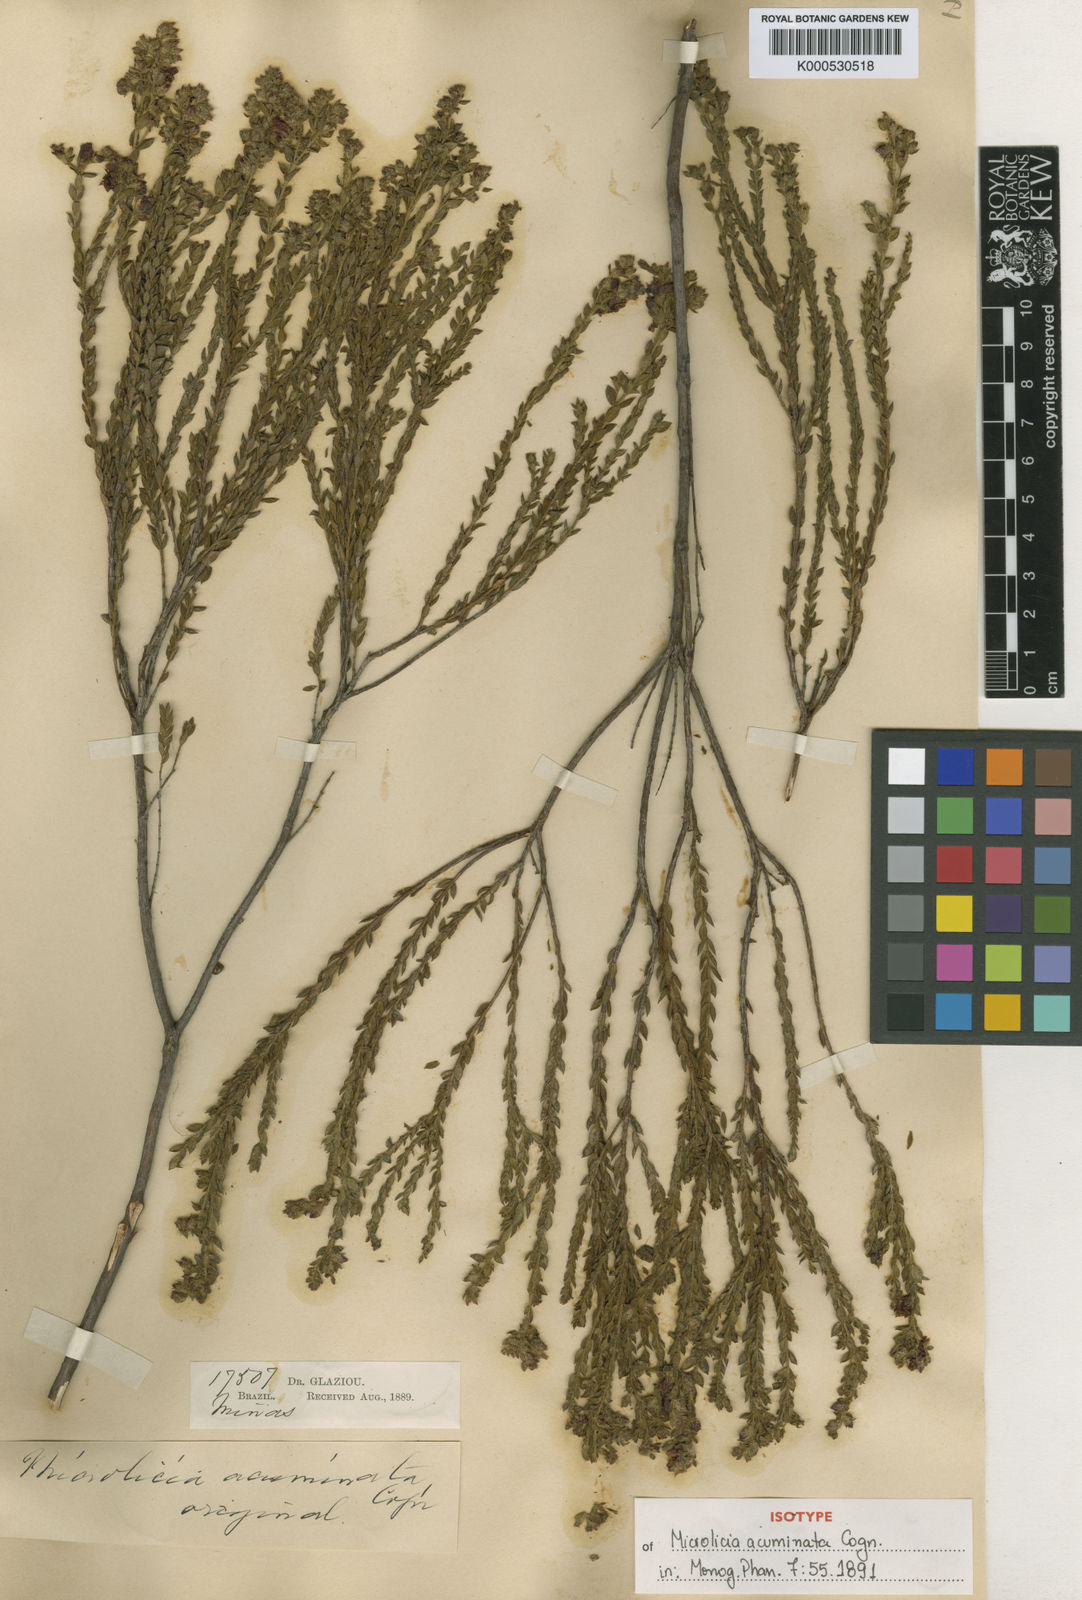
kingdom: Plantae
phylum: Tracheophyta
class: Magnoliopsida
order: Myrtales
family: Melastomataceae
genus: Microlicia
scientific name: Microlicia hirticalyx
